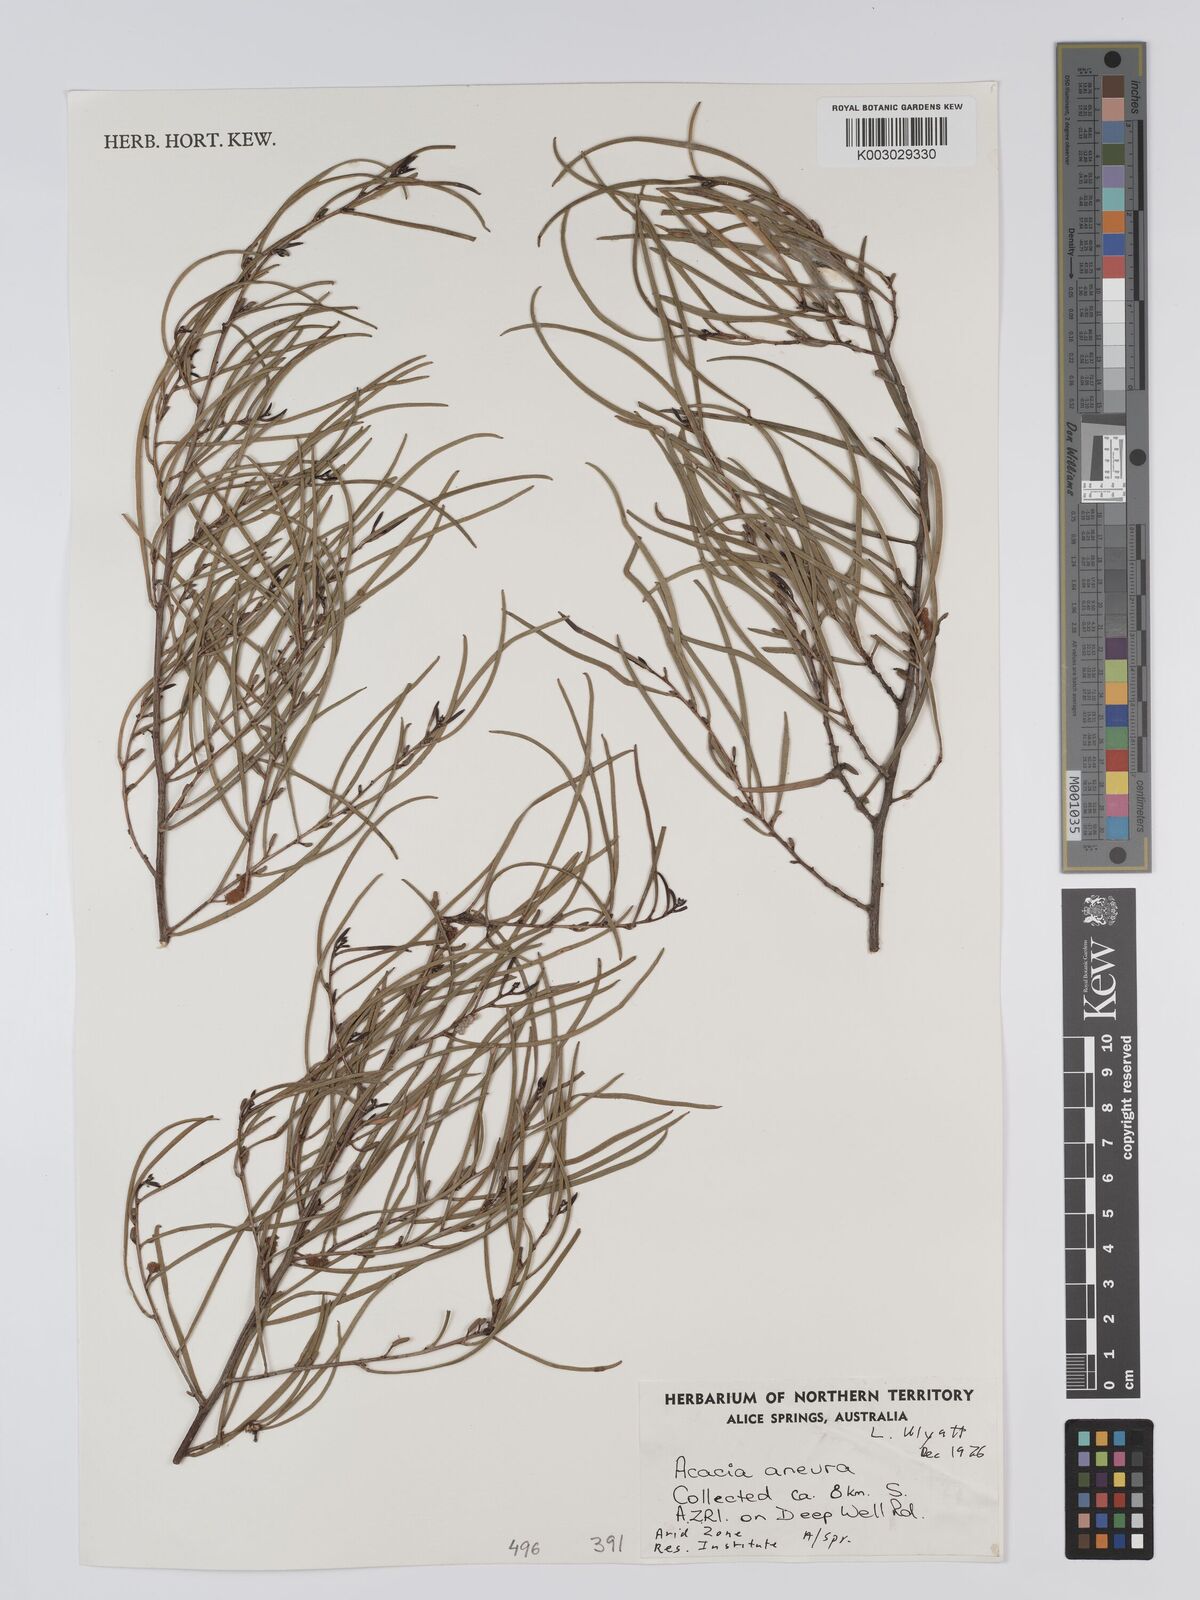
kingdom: Plantae
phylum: Tracheophyta
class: Magnoliopsida
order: Fabales
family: Fabaceae
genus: Acacia
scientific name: Acacia aneura
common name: Mulga
